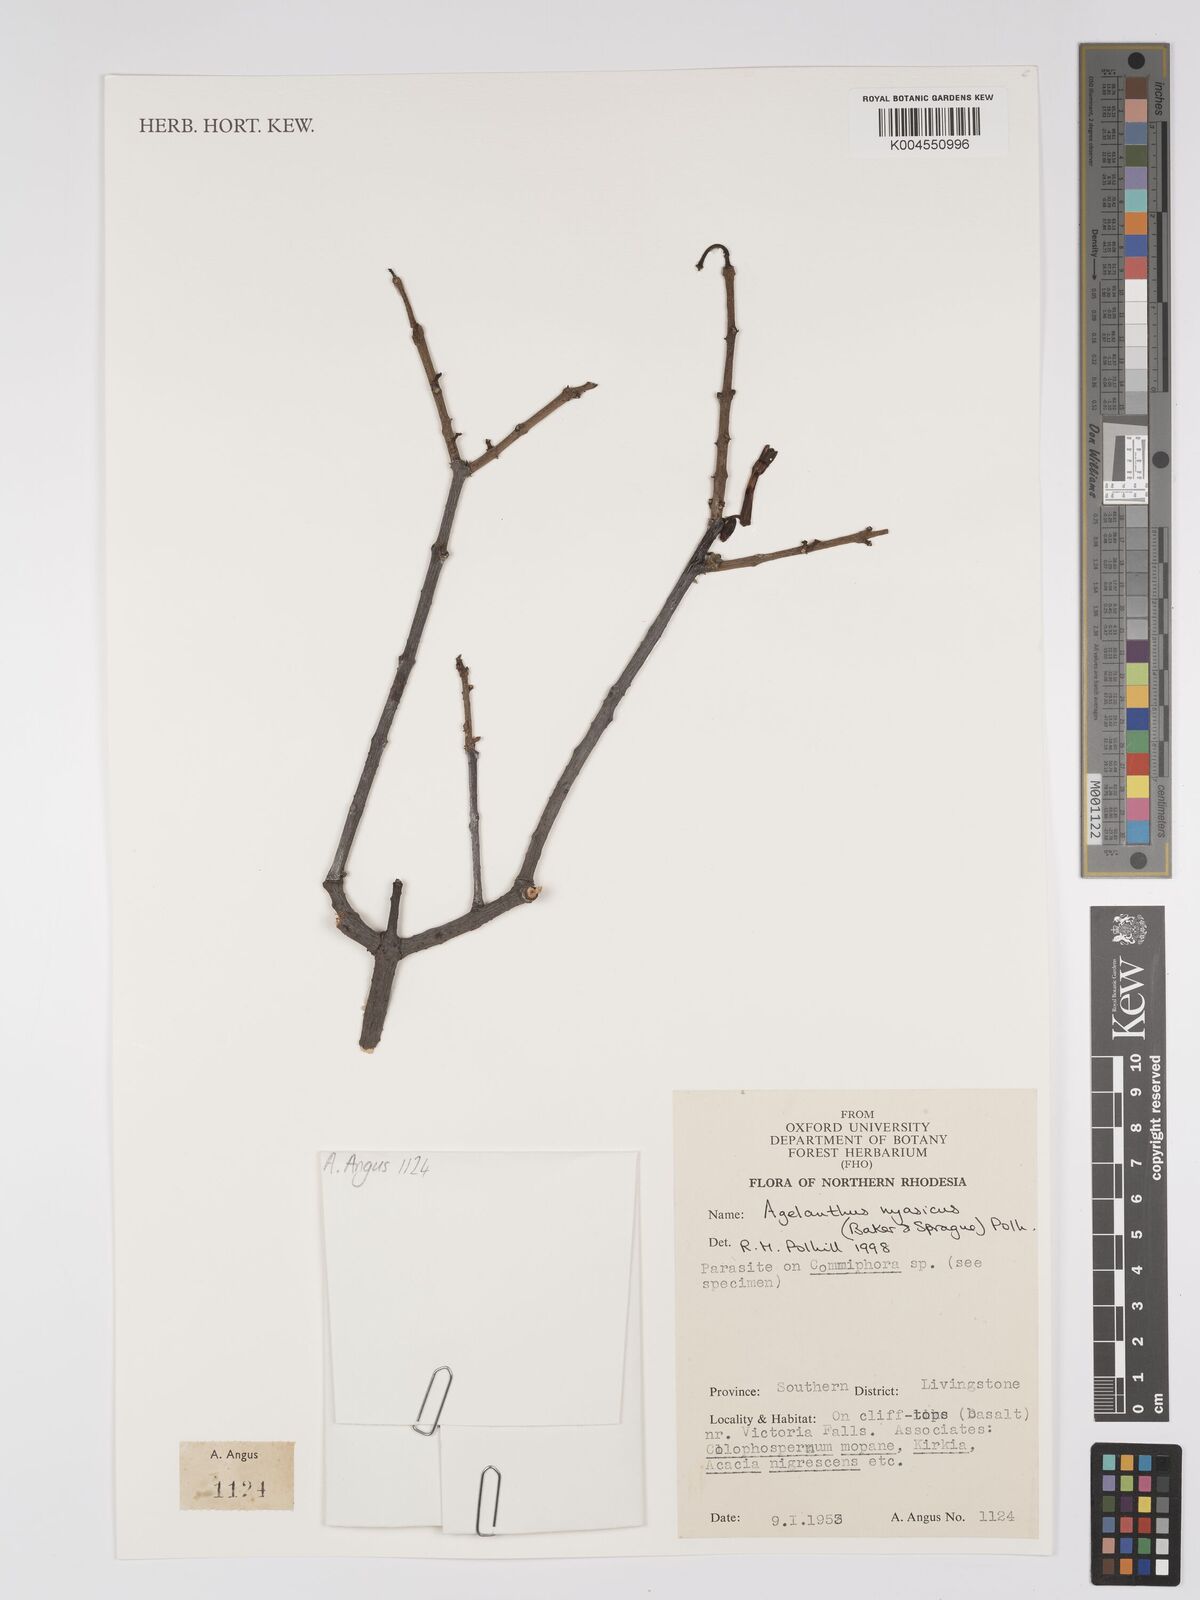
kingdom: Plantae
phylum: Tracheophyta
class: Magnoliopsida
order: Santalales
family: Loranthaceae
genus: Agelanthus
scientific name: Agelanthus nyasicus
